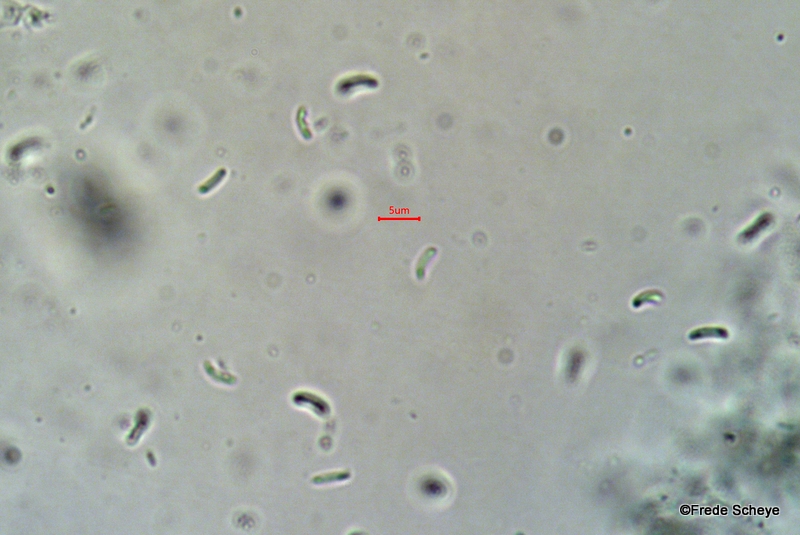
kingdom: Fungi
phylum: Basidiomycota
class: Agaricomycetes
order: Agaricales
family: Sarcomyxaceae
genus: Sarcomyxa
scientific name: Sarcomyxa serotina
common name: gummihat
